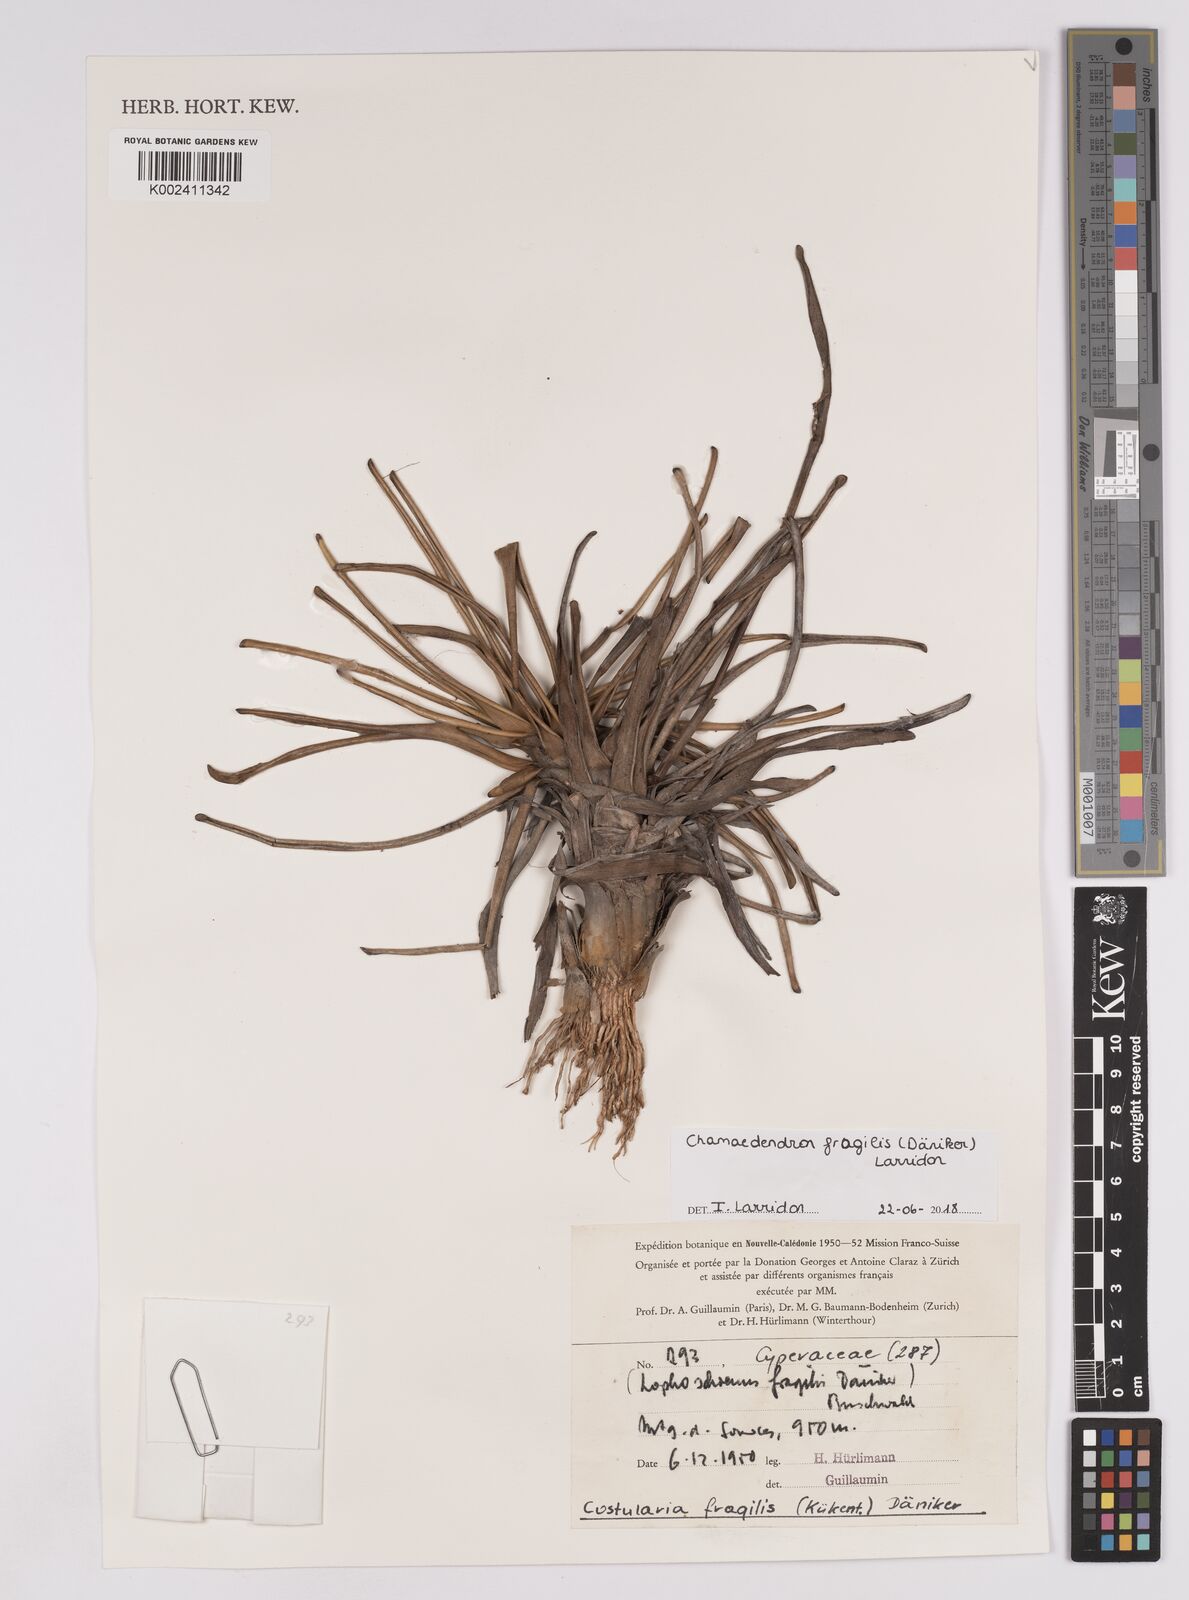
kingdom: Plantae
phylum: Tracheophyta
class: Liliopsida
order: Poales
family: Cyperaceae
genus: Chamaedendron
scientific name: Chamaedendron fragilis
